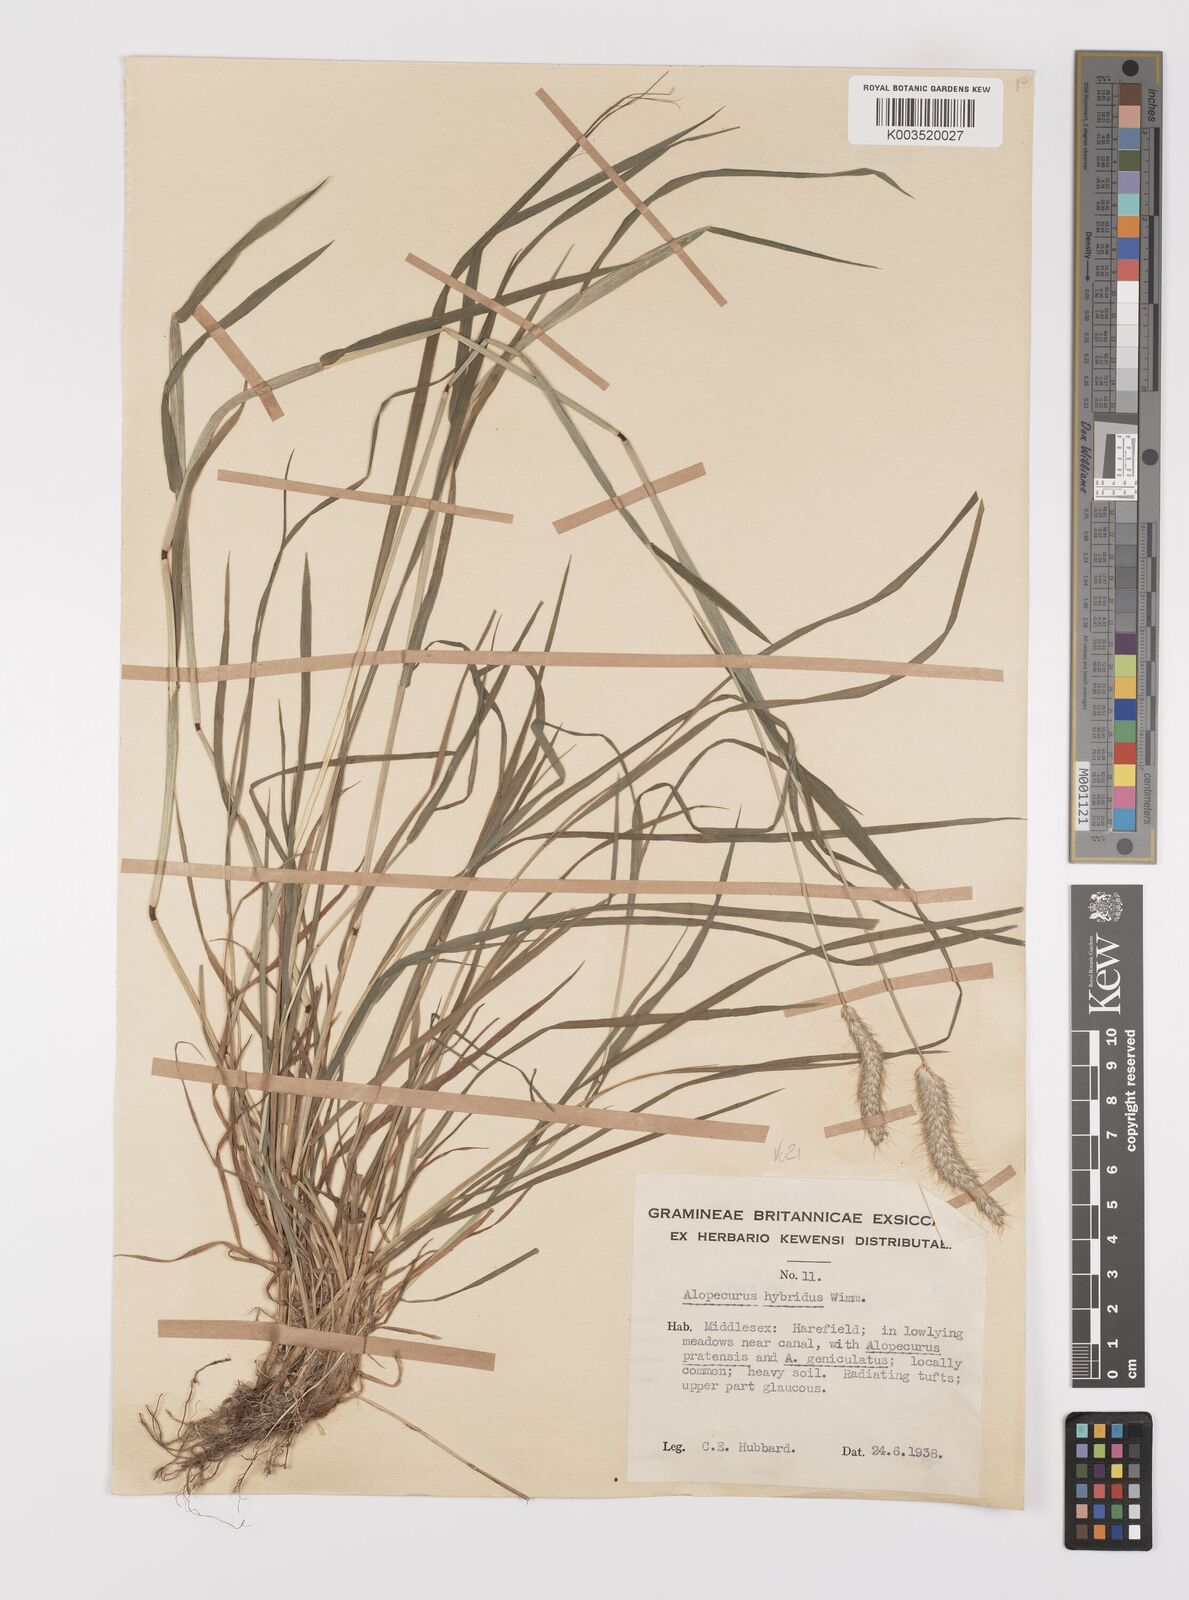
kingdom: Plantae
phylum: Tracheophyta
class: Liliopsida
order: Poales
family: Poaceae
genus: Alopecurus
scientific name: Alopecurus brachystylus
